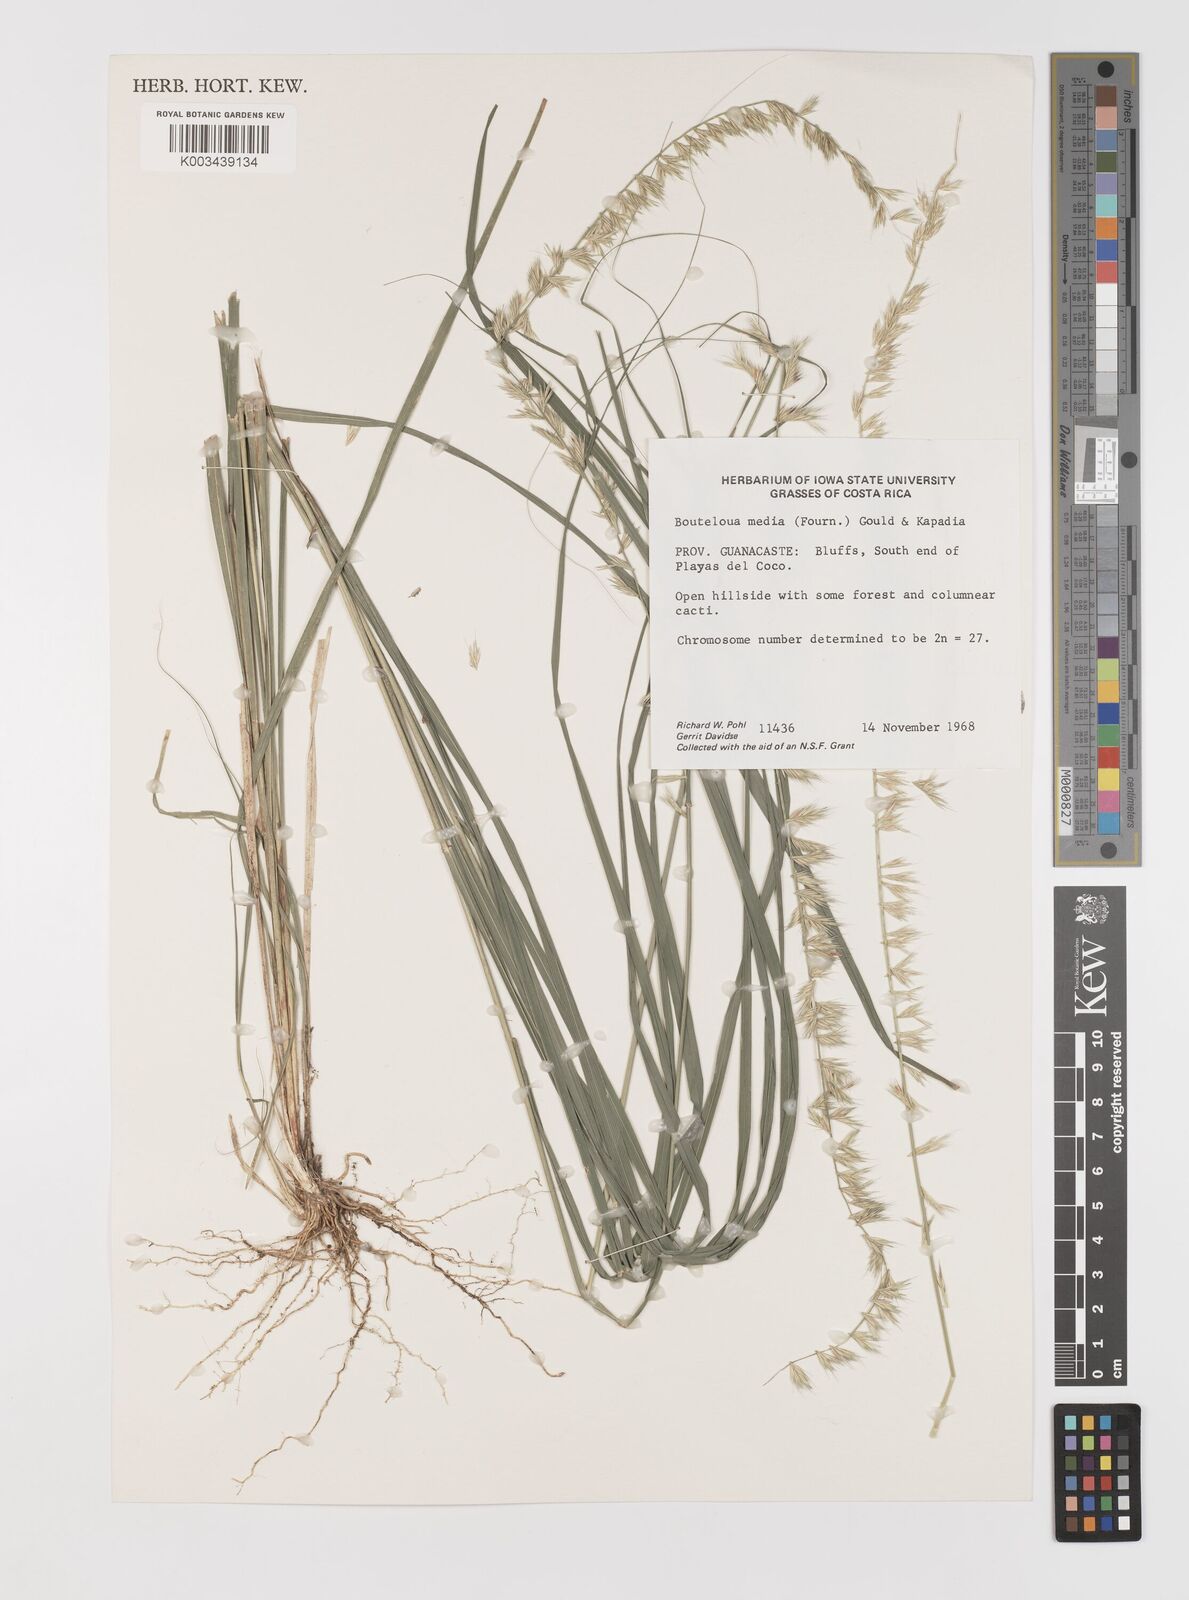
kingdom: Plantae
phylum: Tracheophyta
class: Liliopsida
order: Poales
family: Poaceae
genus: Bouteloua
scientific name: Bouteloua media
